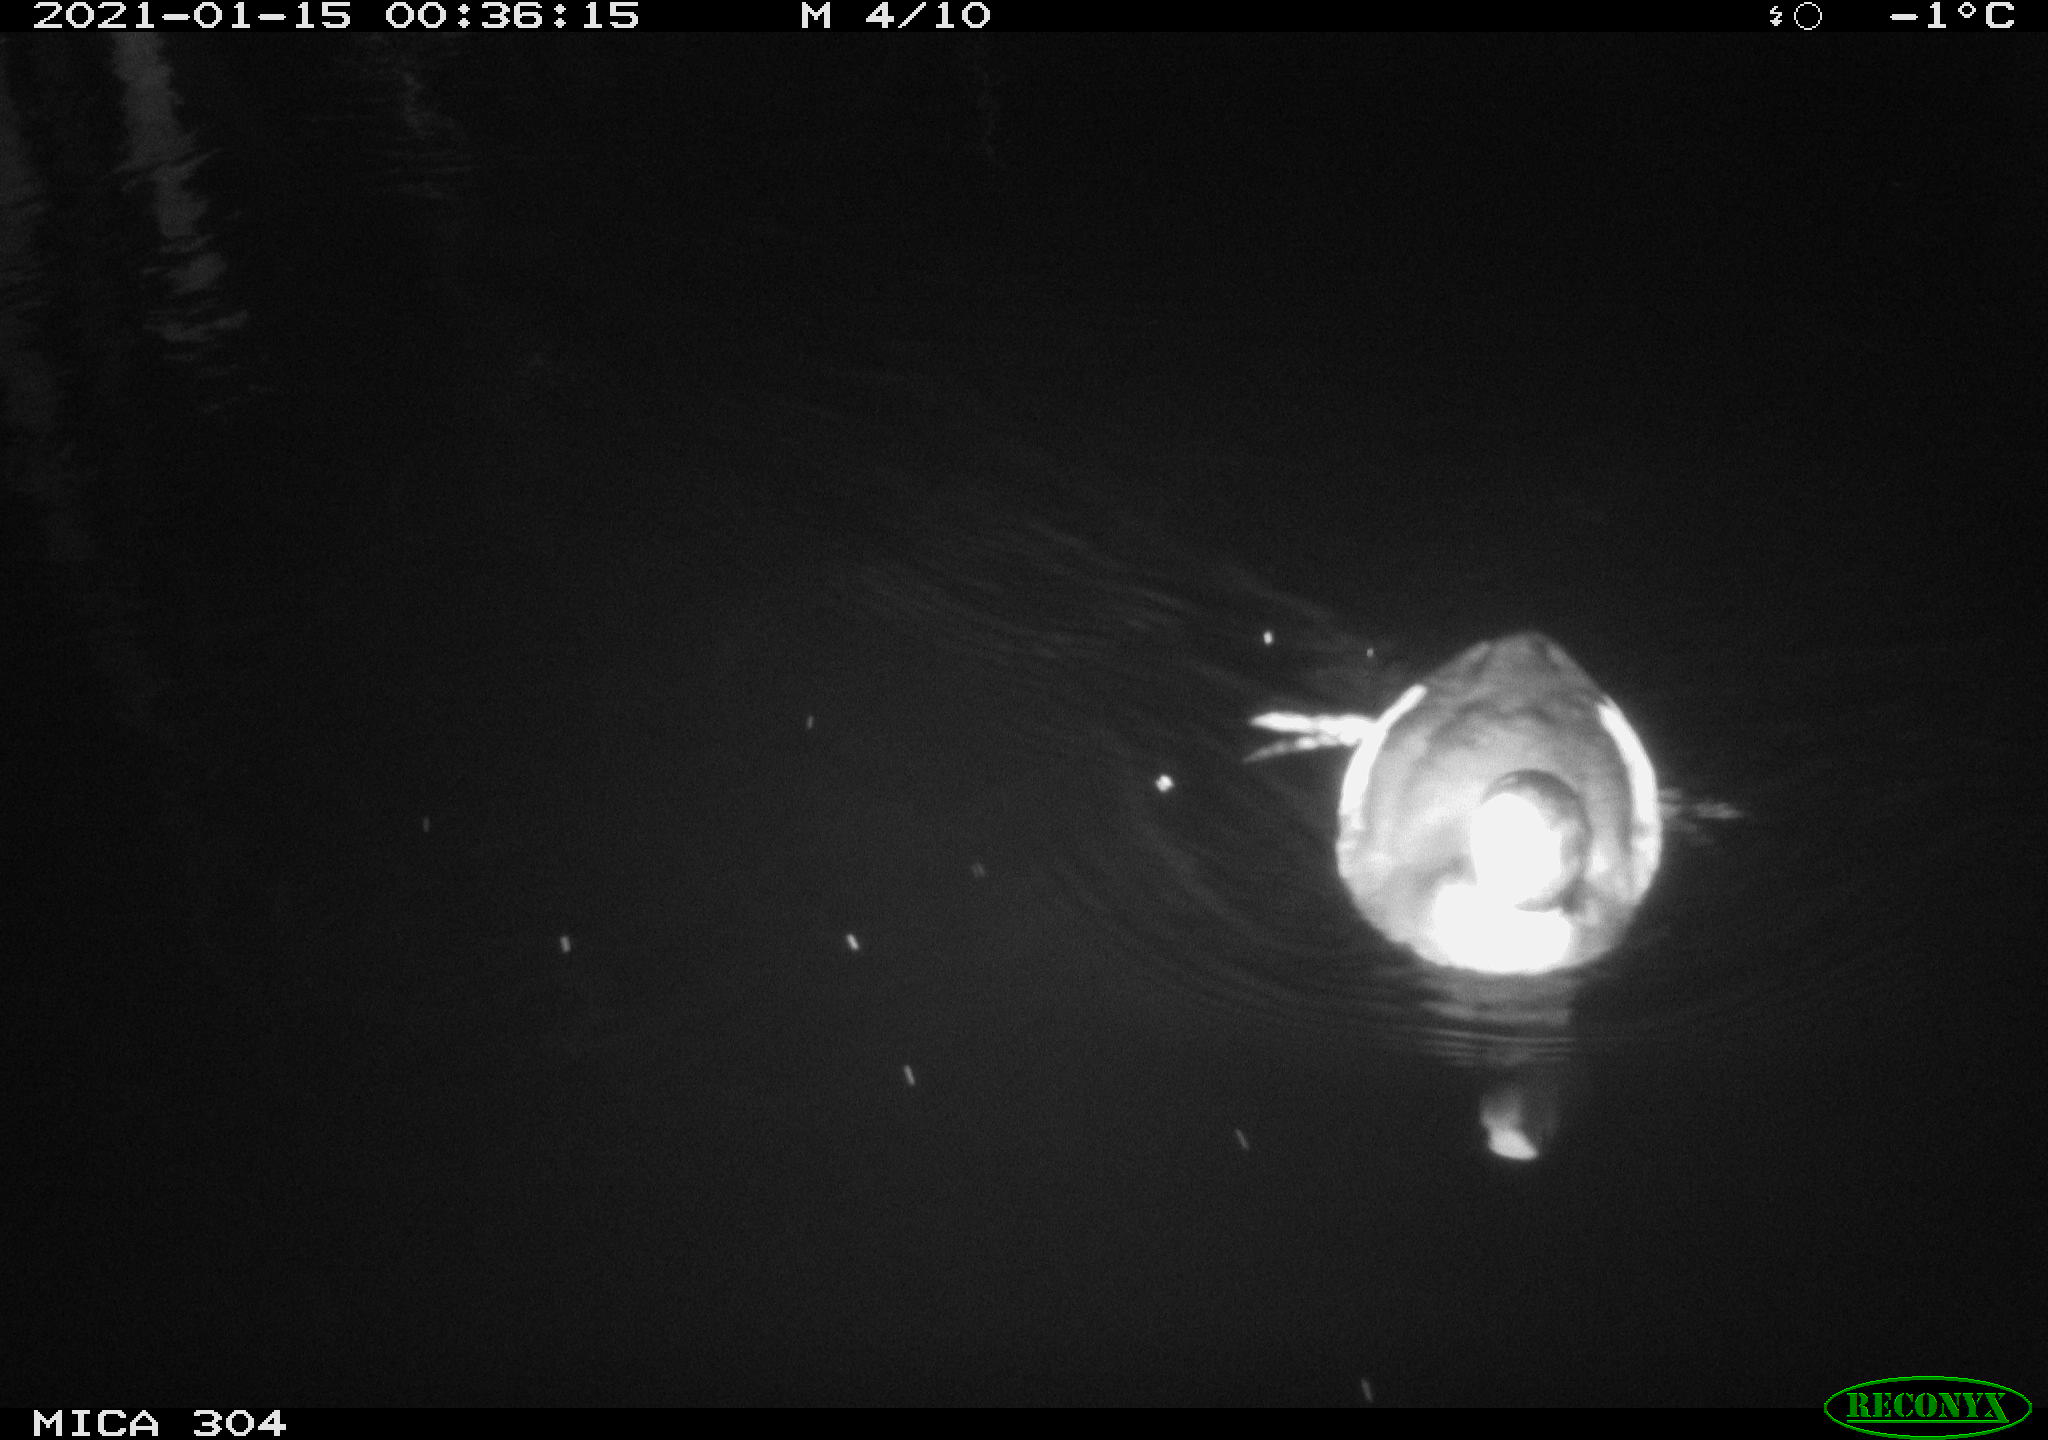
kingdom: Animalia
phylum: Chordata
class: Aves
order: Gruiformes
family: Rallidae
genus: Fulica
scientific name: Fulica atra
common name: Eurasian coot
